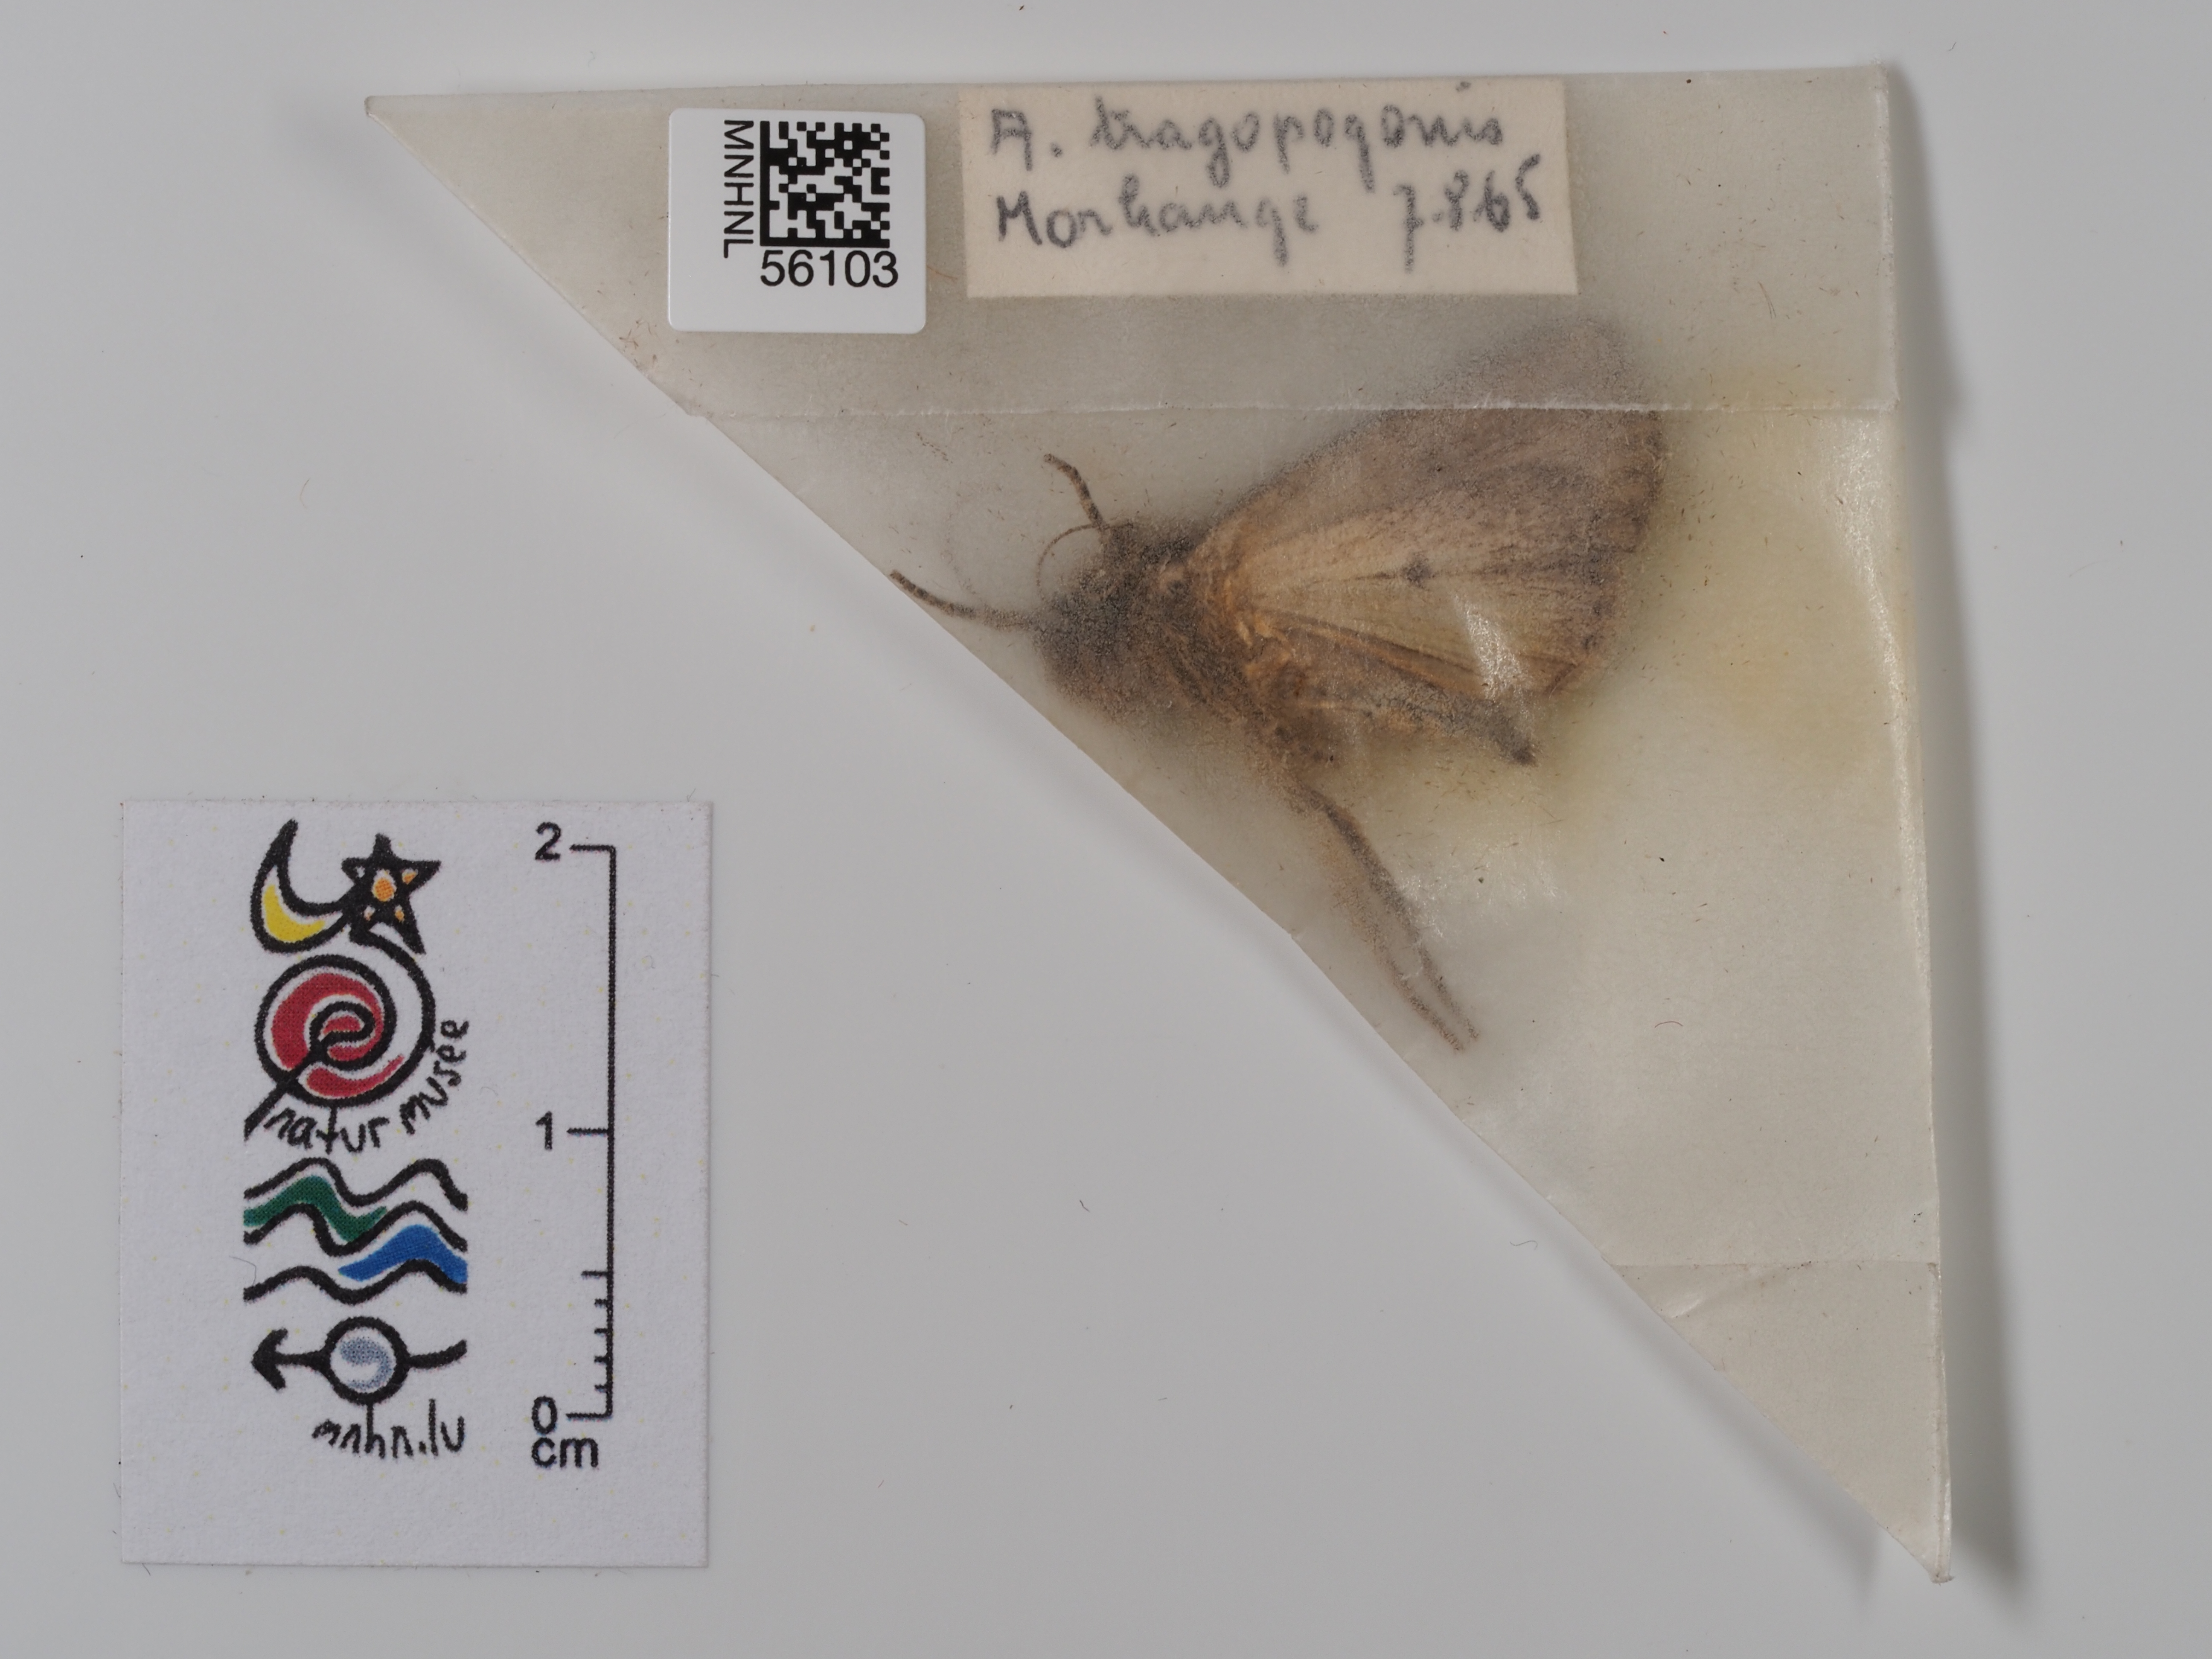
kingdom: Animalia
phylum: Arthropoda
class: Insecta
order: Lepidoptera
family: Noctuidae
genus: Amphipyra
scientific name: Amphipyra tragopoginis
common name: Mouse moth
